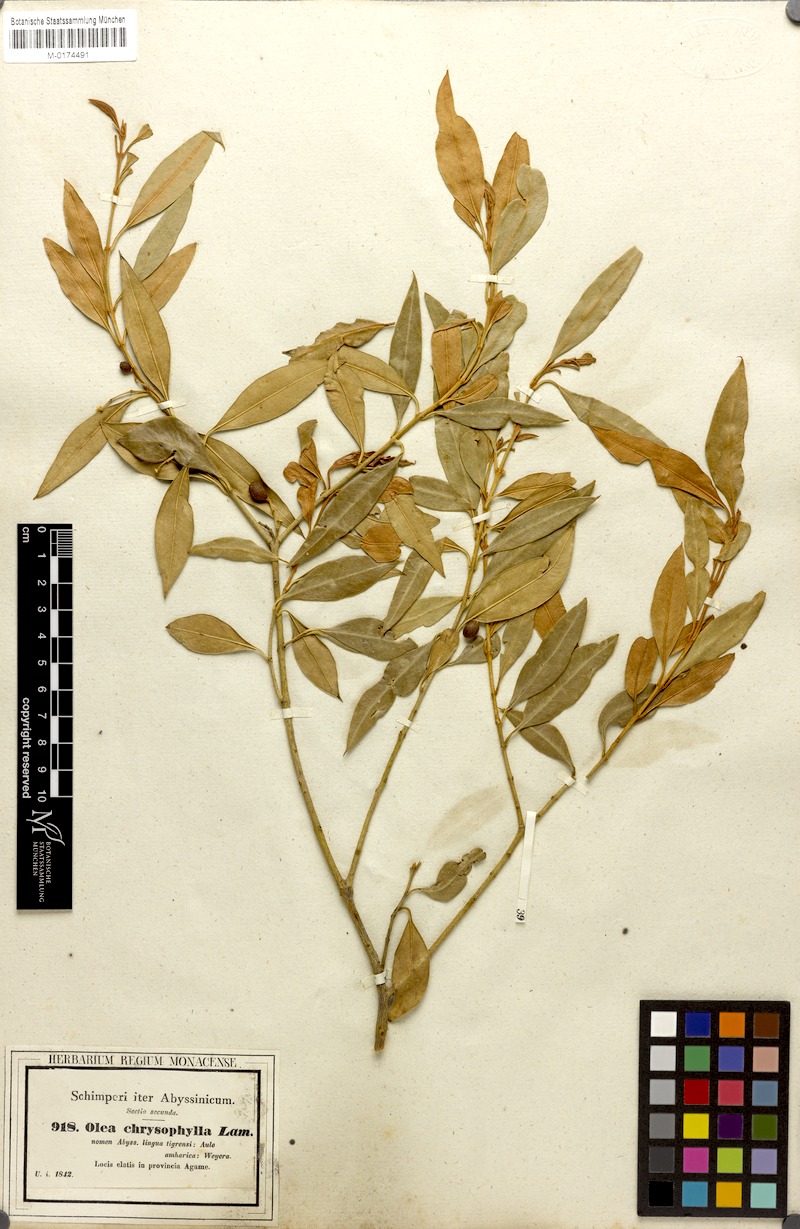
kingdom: Plantae
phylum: Tracheophyta
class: Magnoliopsida
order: Lamiales
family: Oleaceae
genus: Olea
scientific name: Olea europaea
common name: Olive
